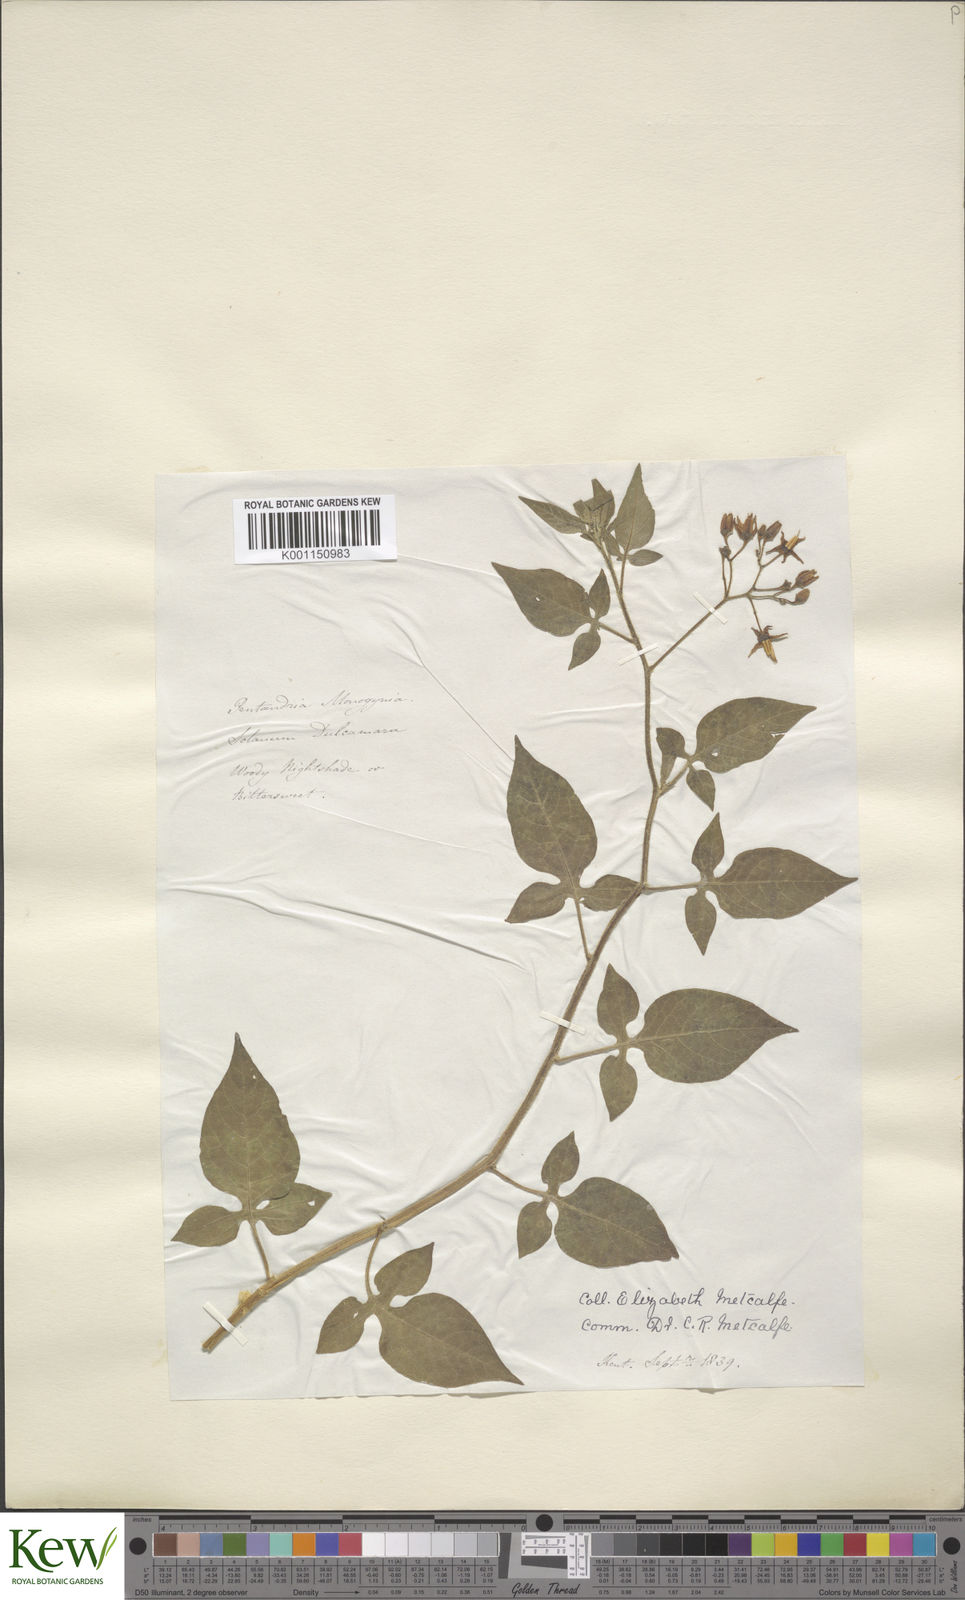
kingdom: Plantae
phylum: Tracheophyta
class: Magnoliopsida
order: Solanales
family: Solanaceae
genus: Solanum
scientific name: Solanum dulcamara
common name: Climbing nightshade
